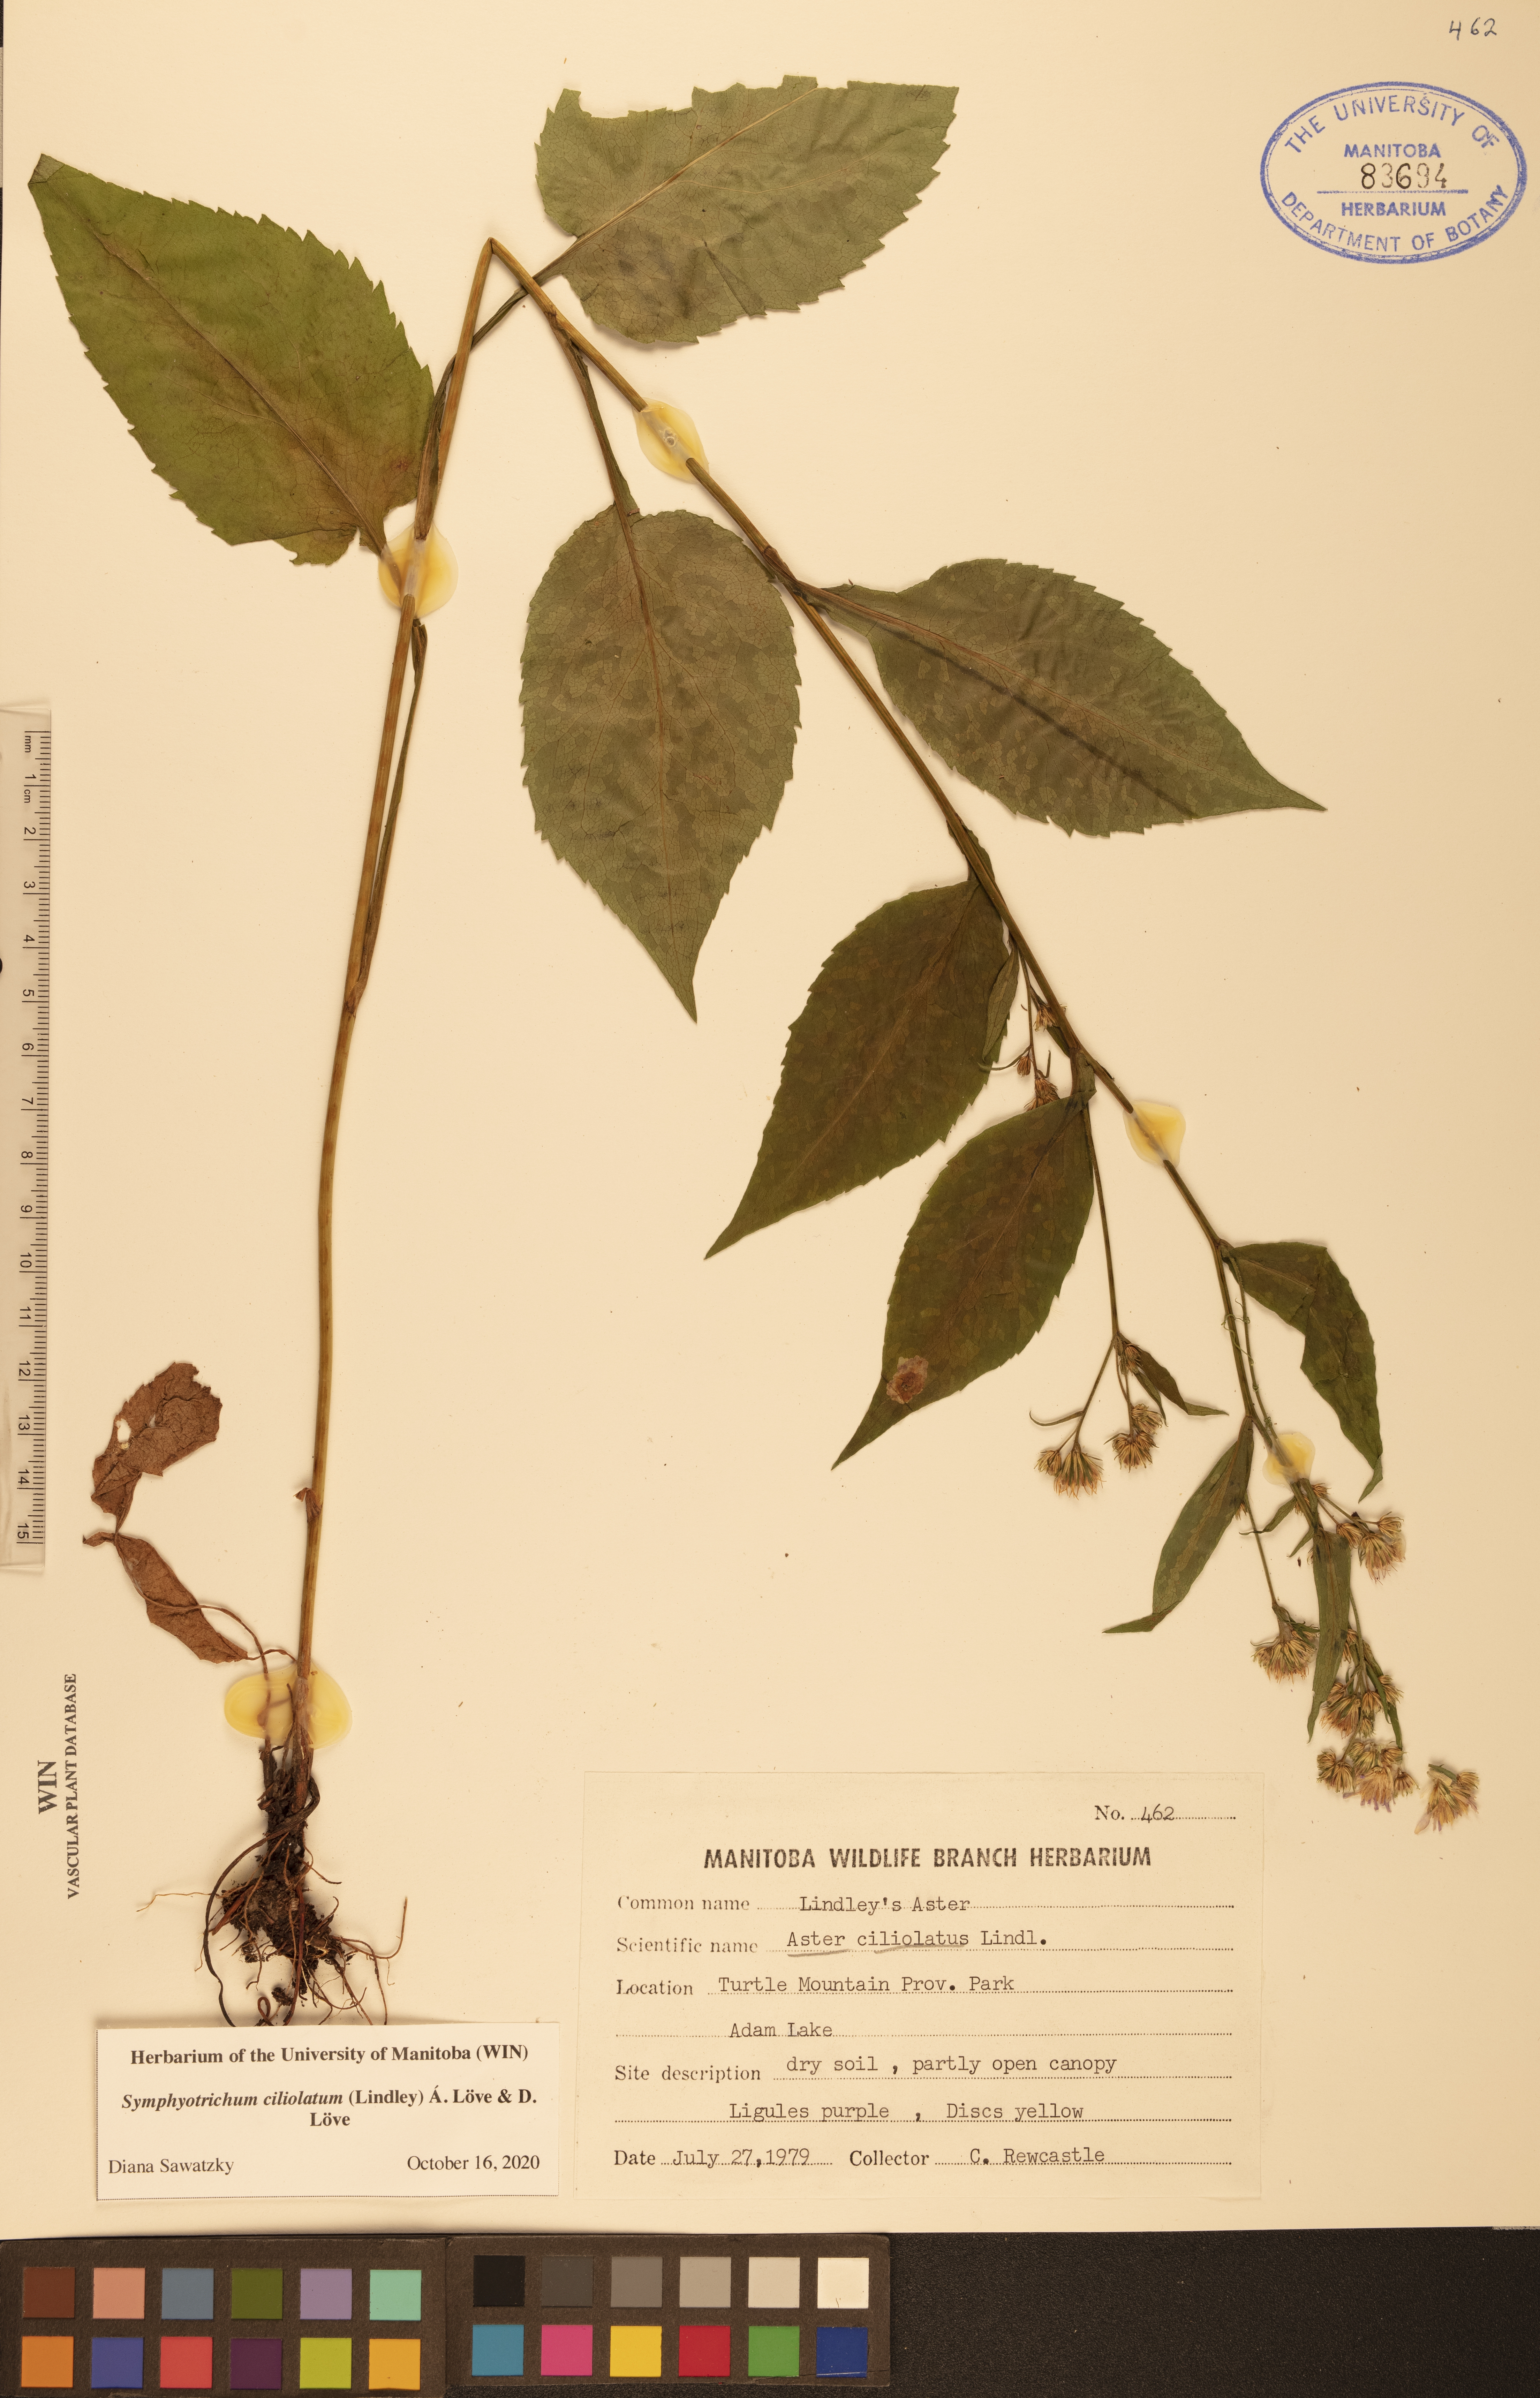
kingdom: Plantae
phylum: Tracheophyta
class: Magnoliopsida
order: Asterales
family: Asteraceae
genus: Symphyotrichum
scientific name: Symphyotrichum ciliolatum
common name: Fringed blue aster
